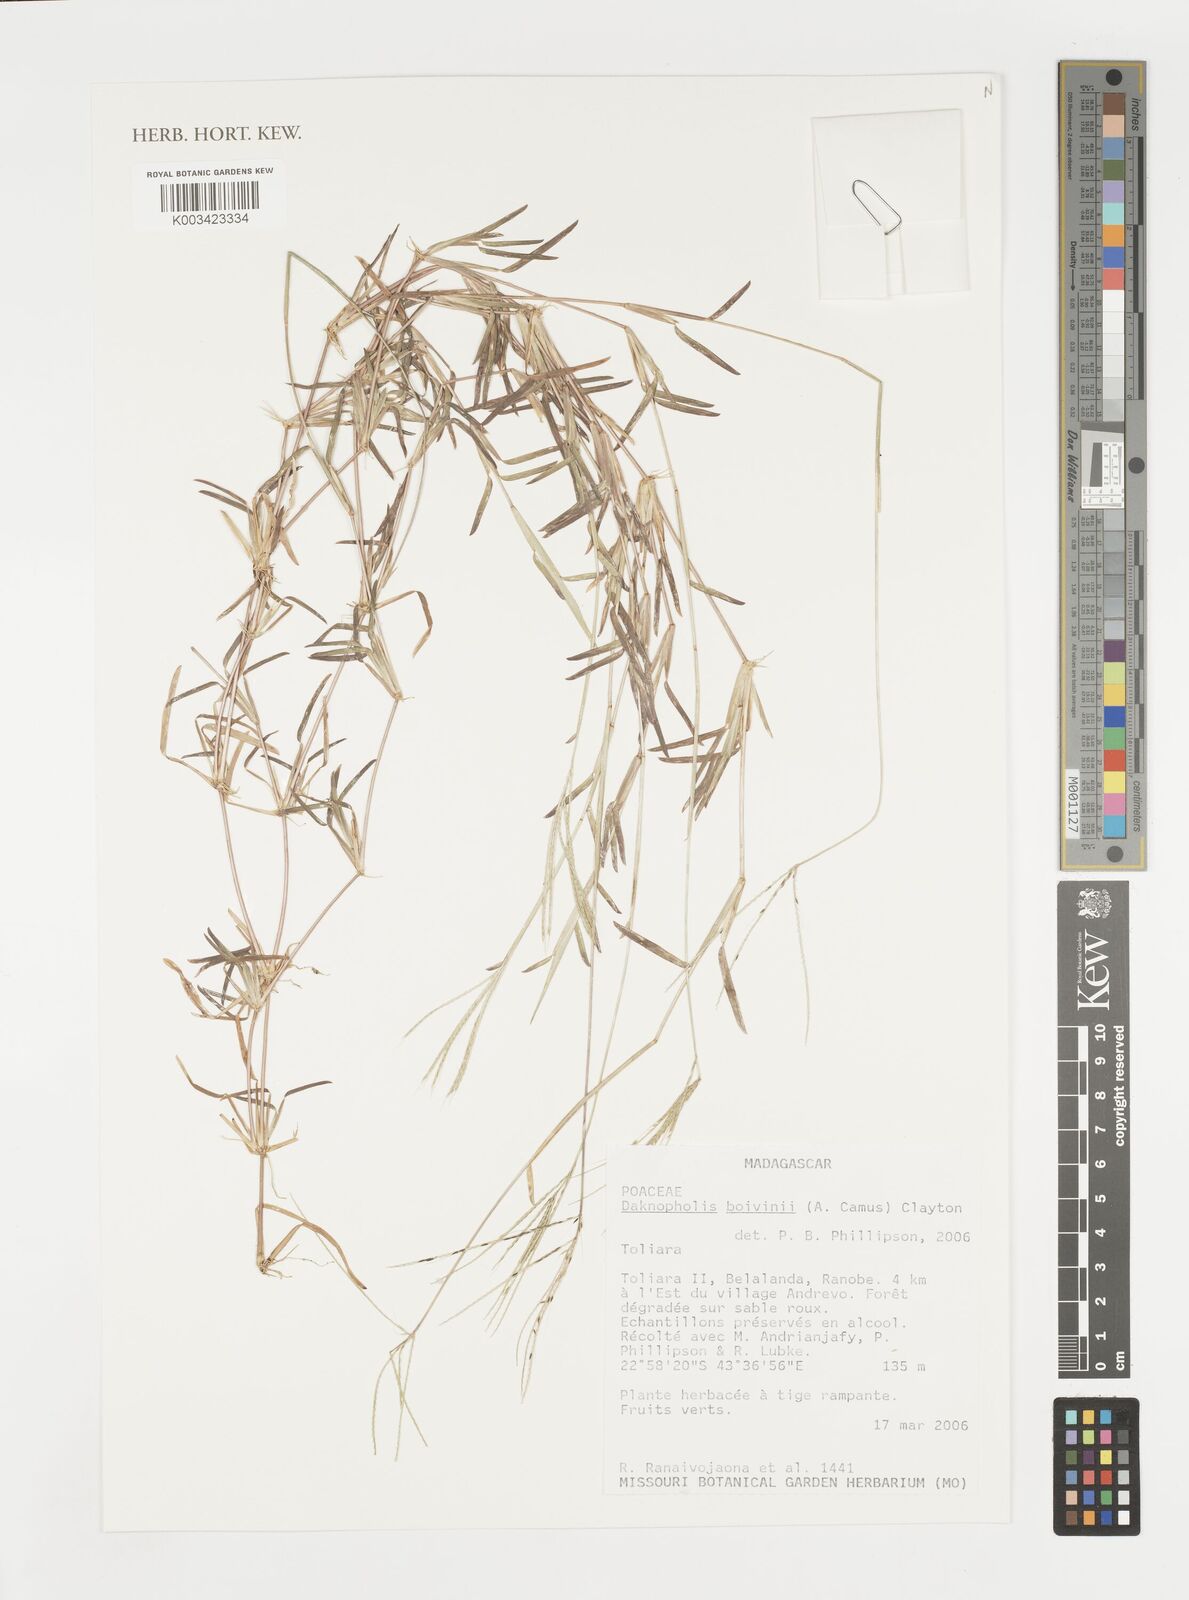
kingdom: Plantae
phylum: Tracheophyta
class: Liliopsida
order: Poales
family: Poaceae
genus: Daknopholis
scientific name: Daknopholis boivinii
